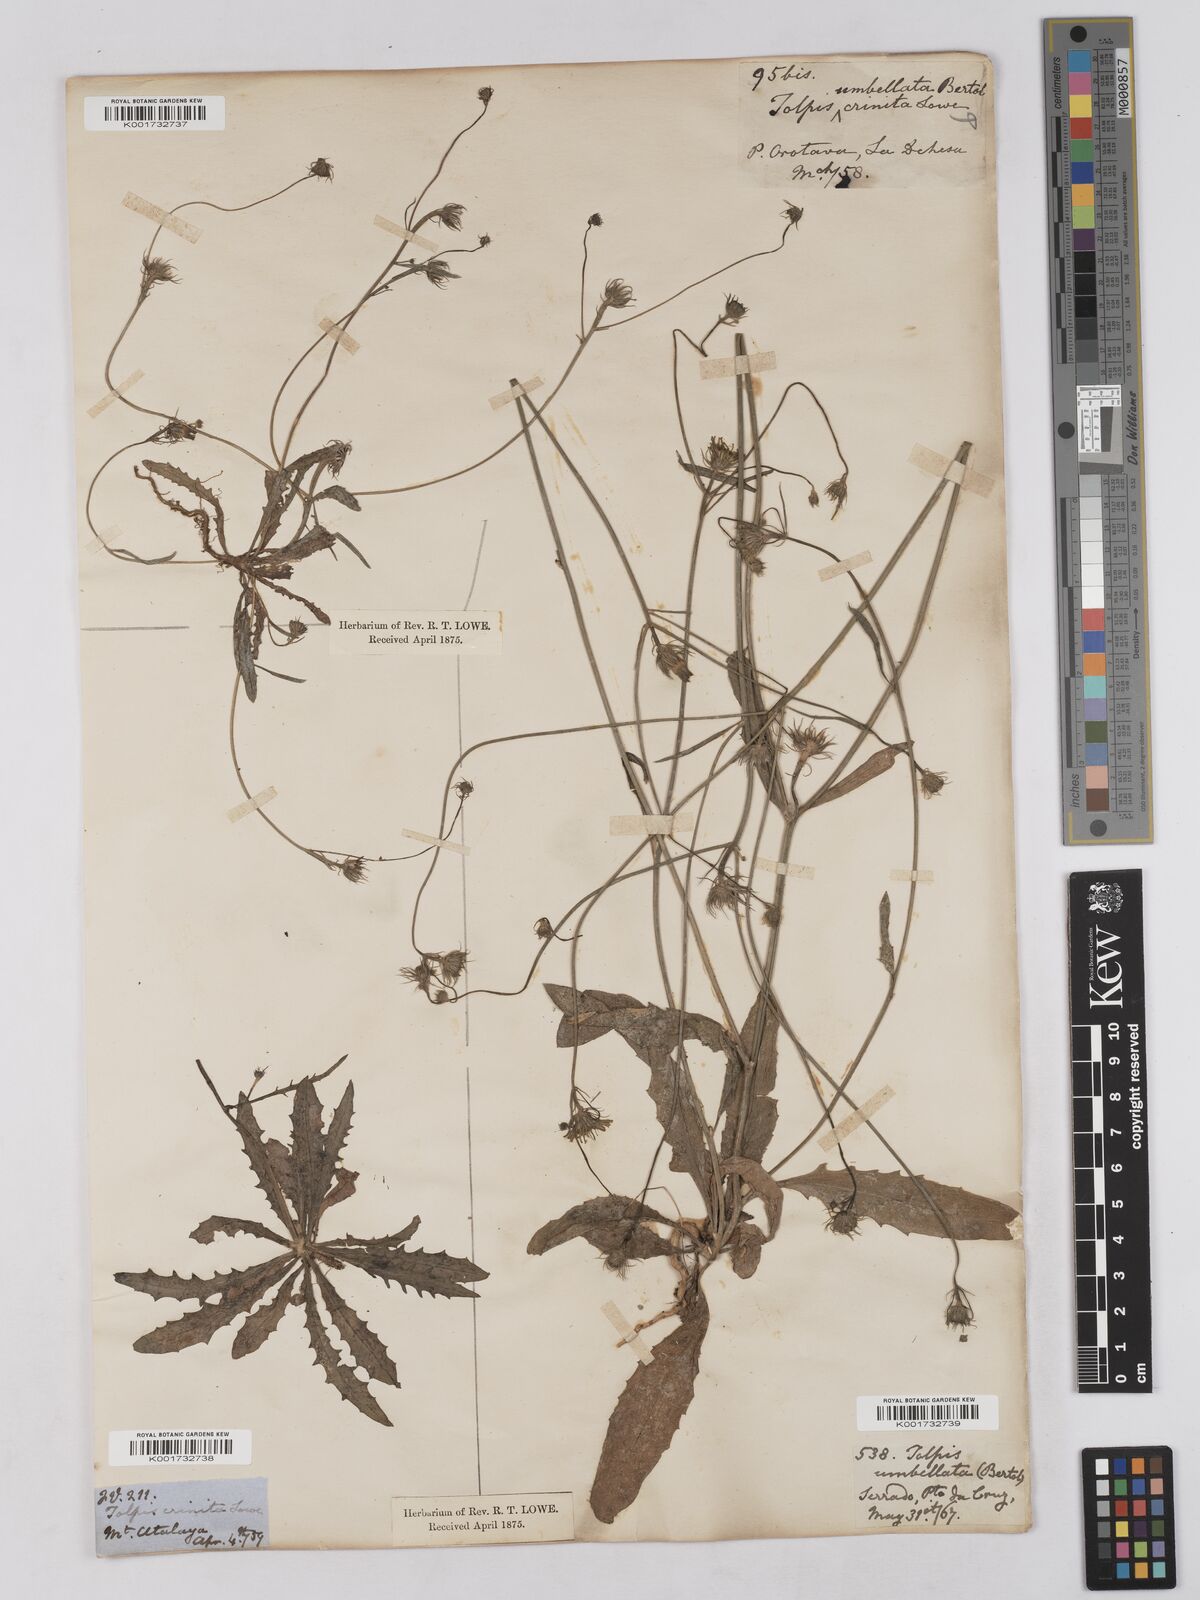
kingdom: Plantae
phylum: Tracheophyta
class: Magnoliopsida
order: Asterales
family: Asteraceae
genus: Tolpis
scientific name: Tolpis umbellata
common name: Yellow hawkweed
